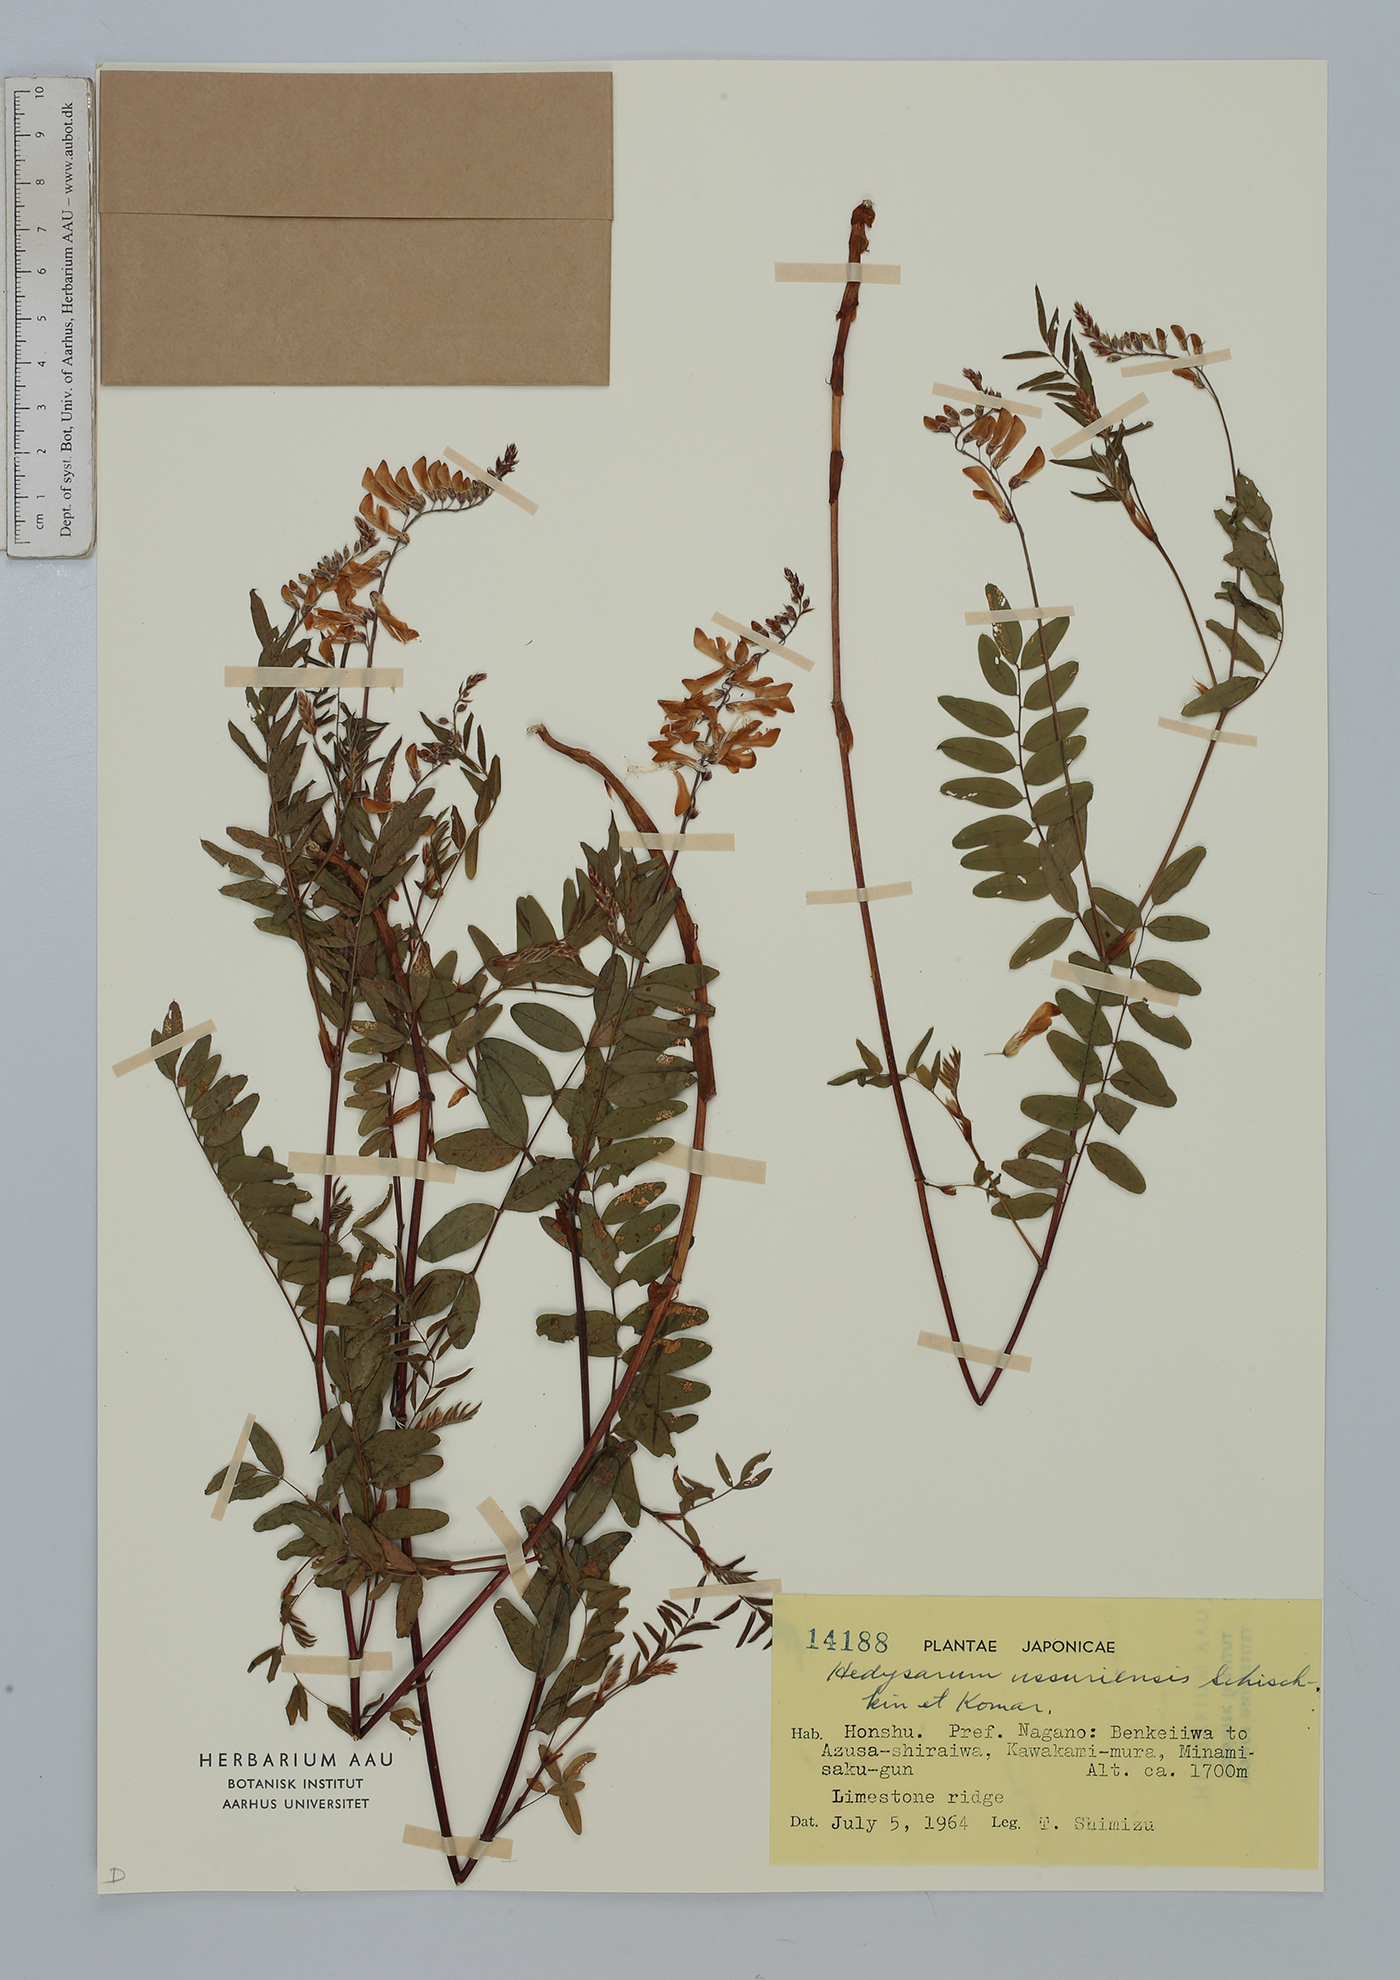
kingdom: Plantae
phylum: Tracheophyta
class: Magnoliopsida
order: Fabales
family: Fabaceae
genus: Hedysarum
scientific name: Hedysarum vicioides
